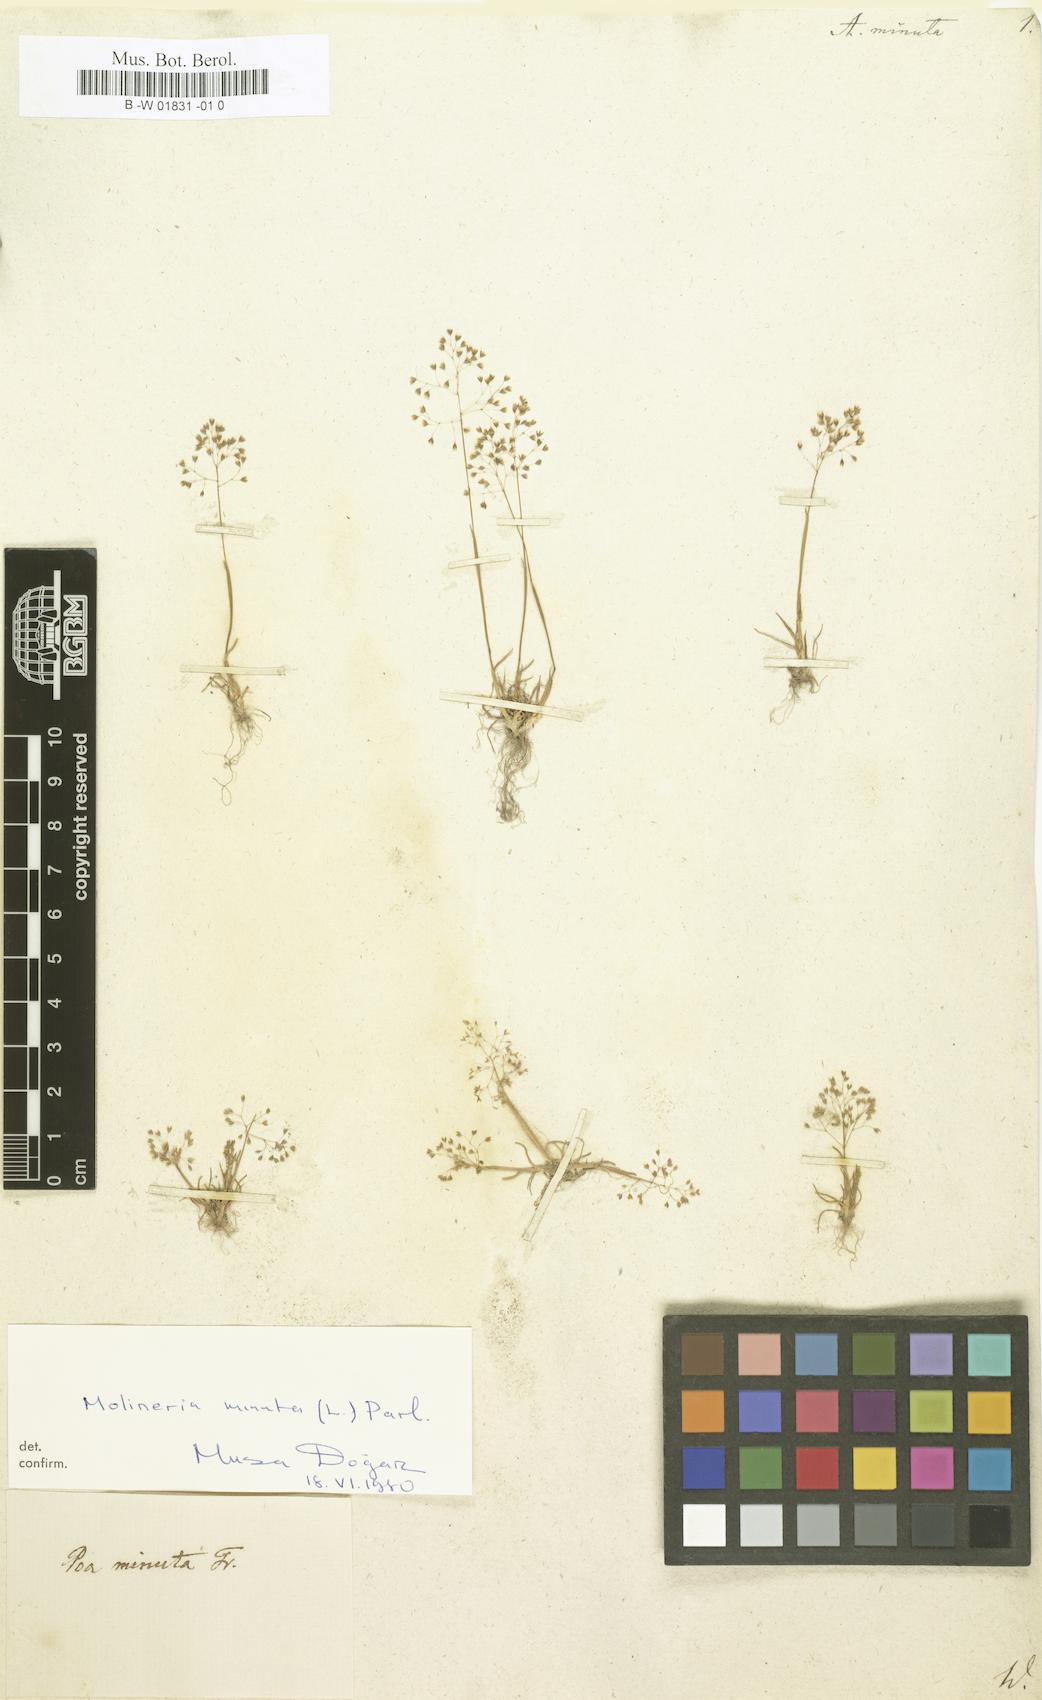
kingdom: Plantae
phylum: Tracheophyta
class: Liliopsida
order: Poales
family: Poaceae
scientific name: Poaceae
